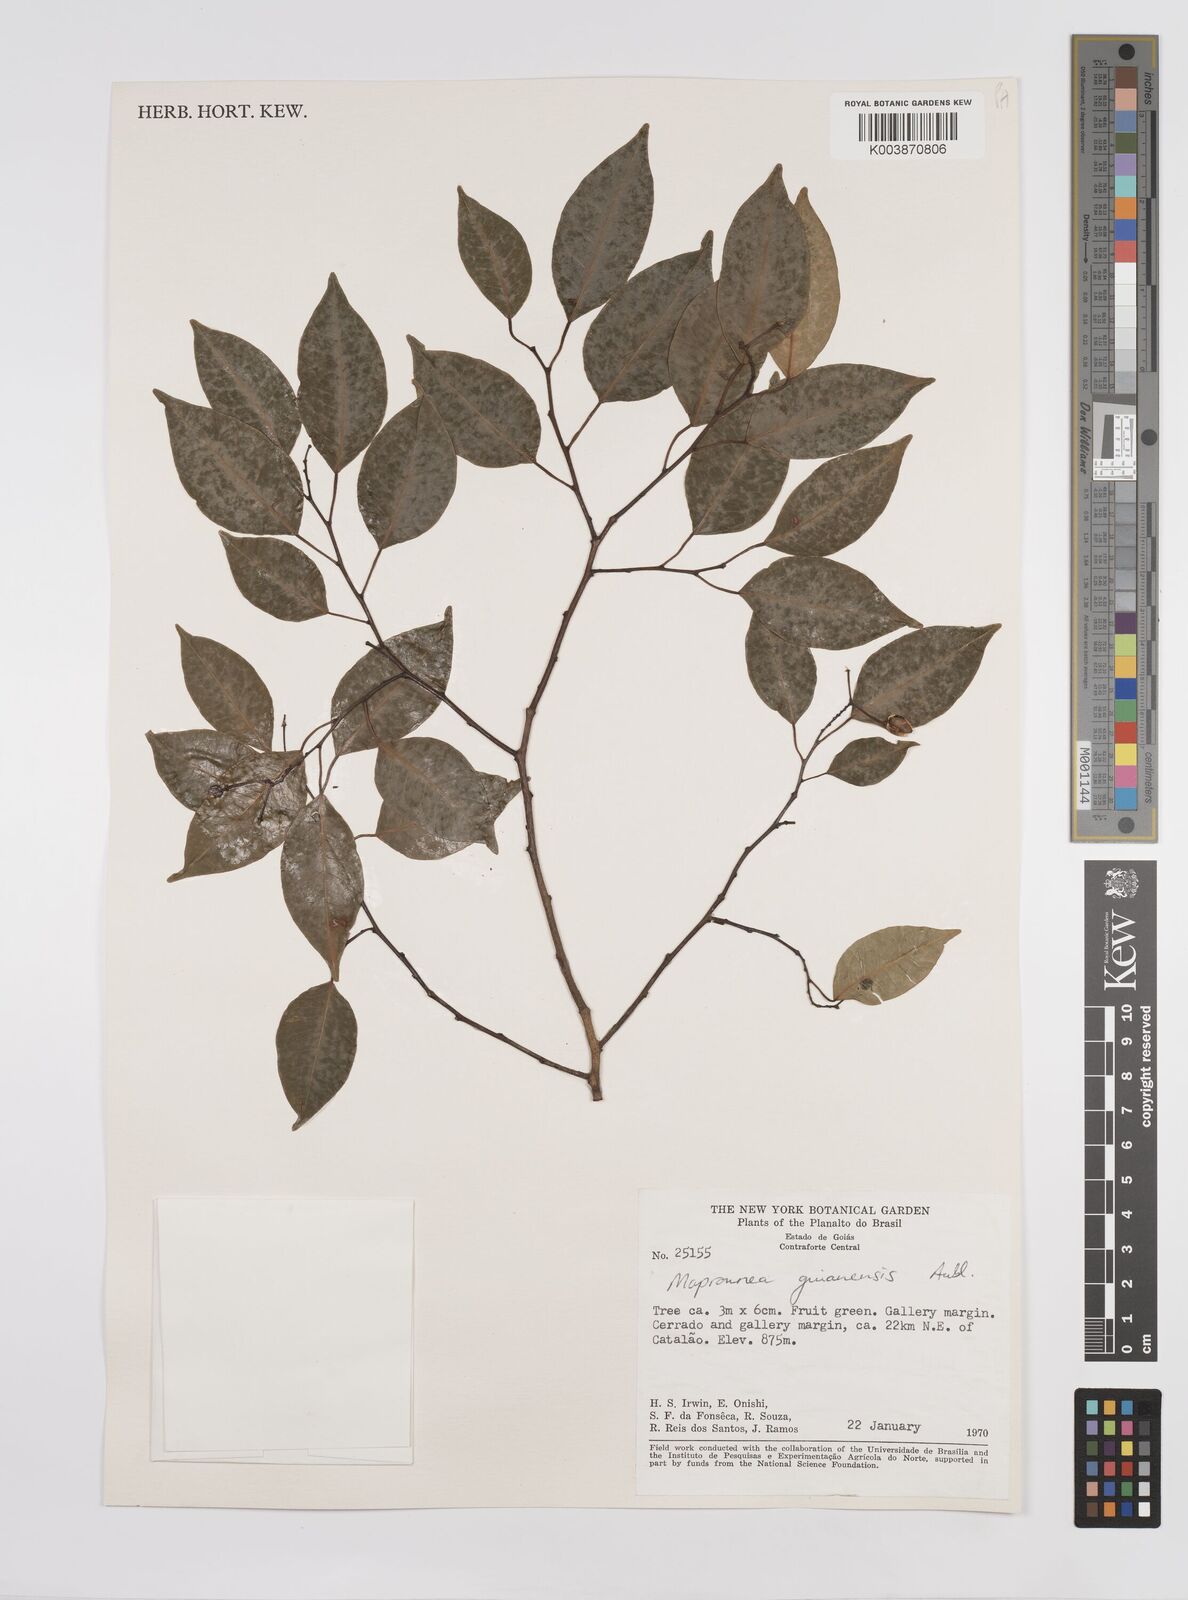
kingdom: Plantae
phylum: Tracheophyta
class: Magnoliopsida
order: Malpighiales
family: Euphorbiaceae
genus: Maprounea
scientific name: Maprounea guianensis
